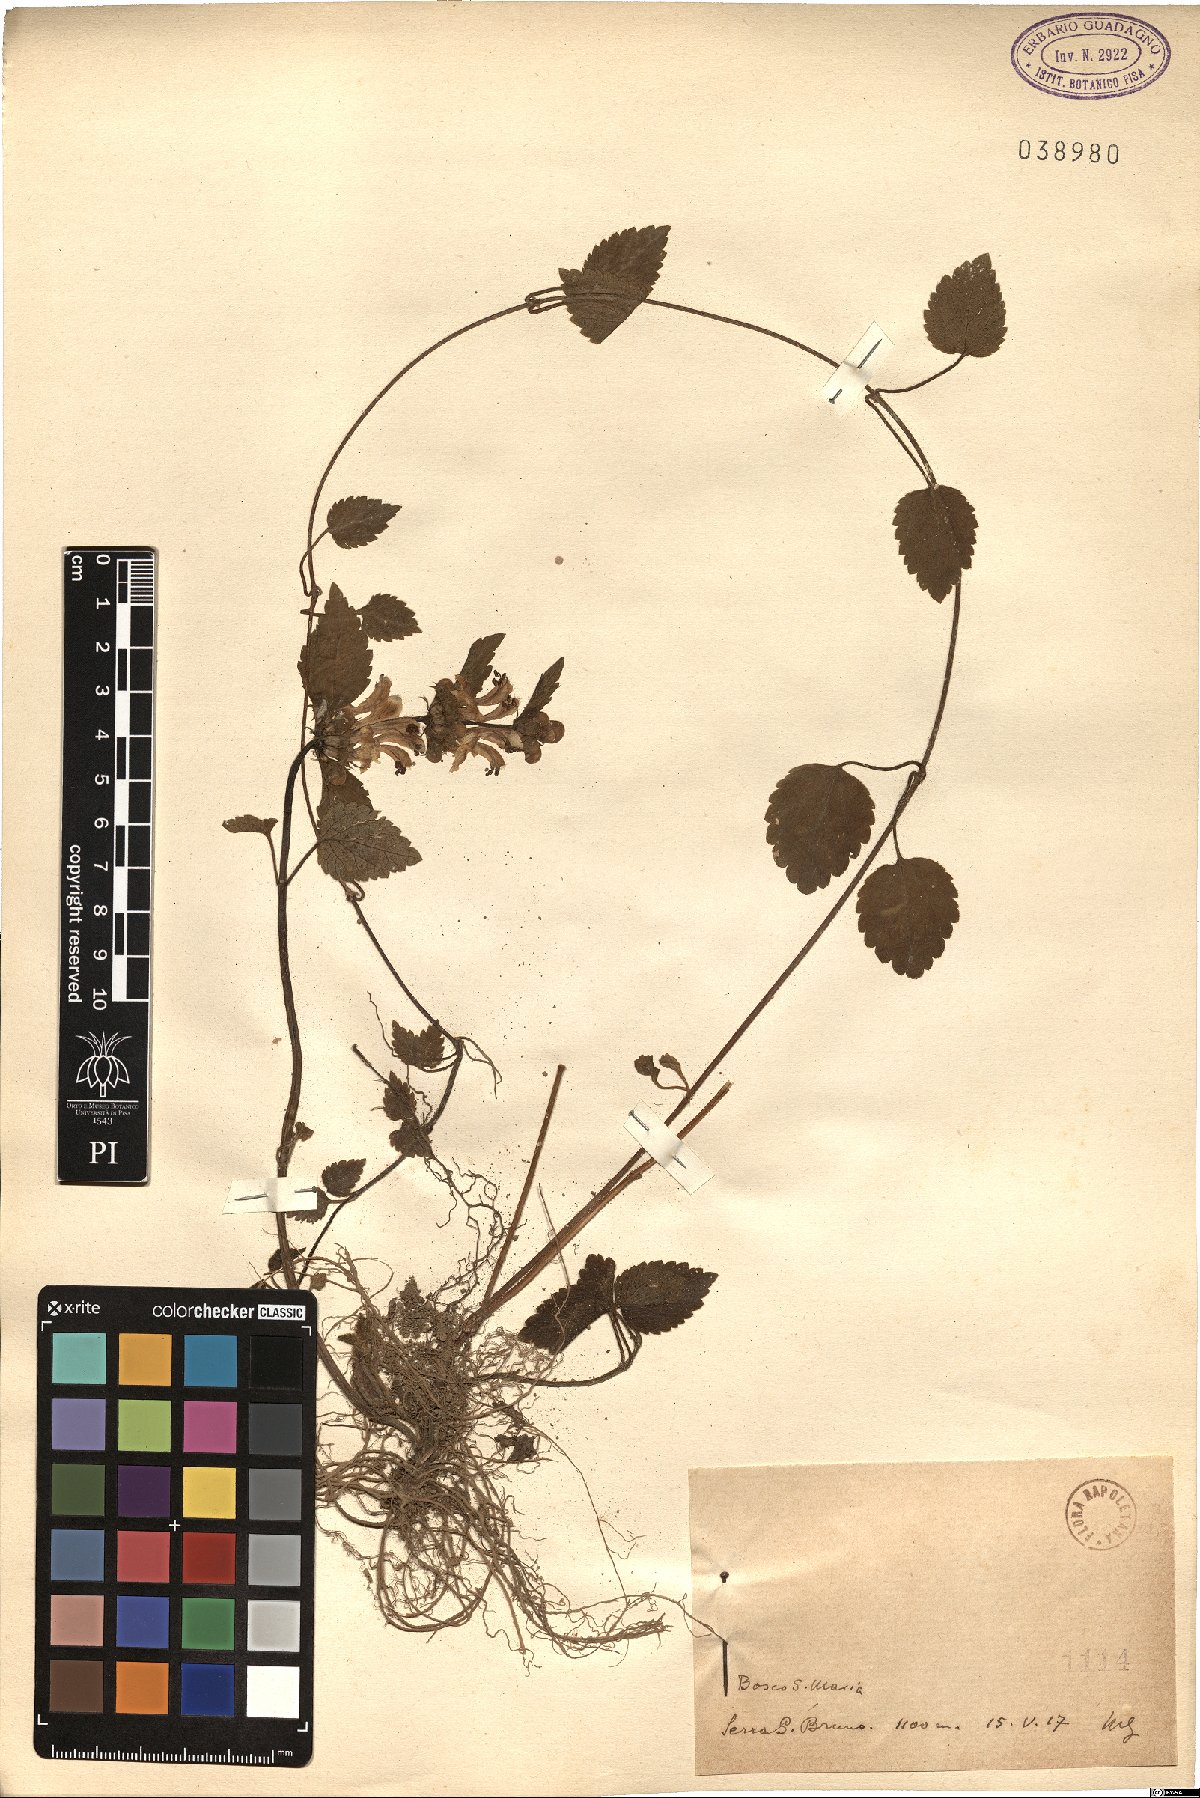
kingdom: Plantae
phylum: Tracheophyta
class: Magnoliopsida
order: Lamiales
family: Lamiaceae
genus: Lamium
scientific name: Lamium
